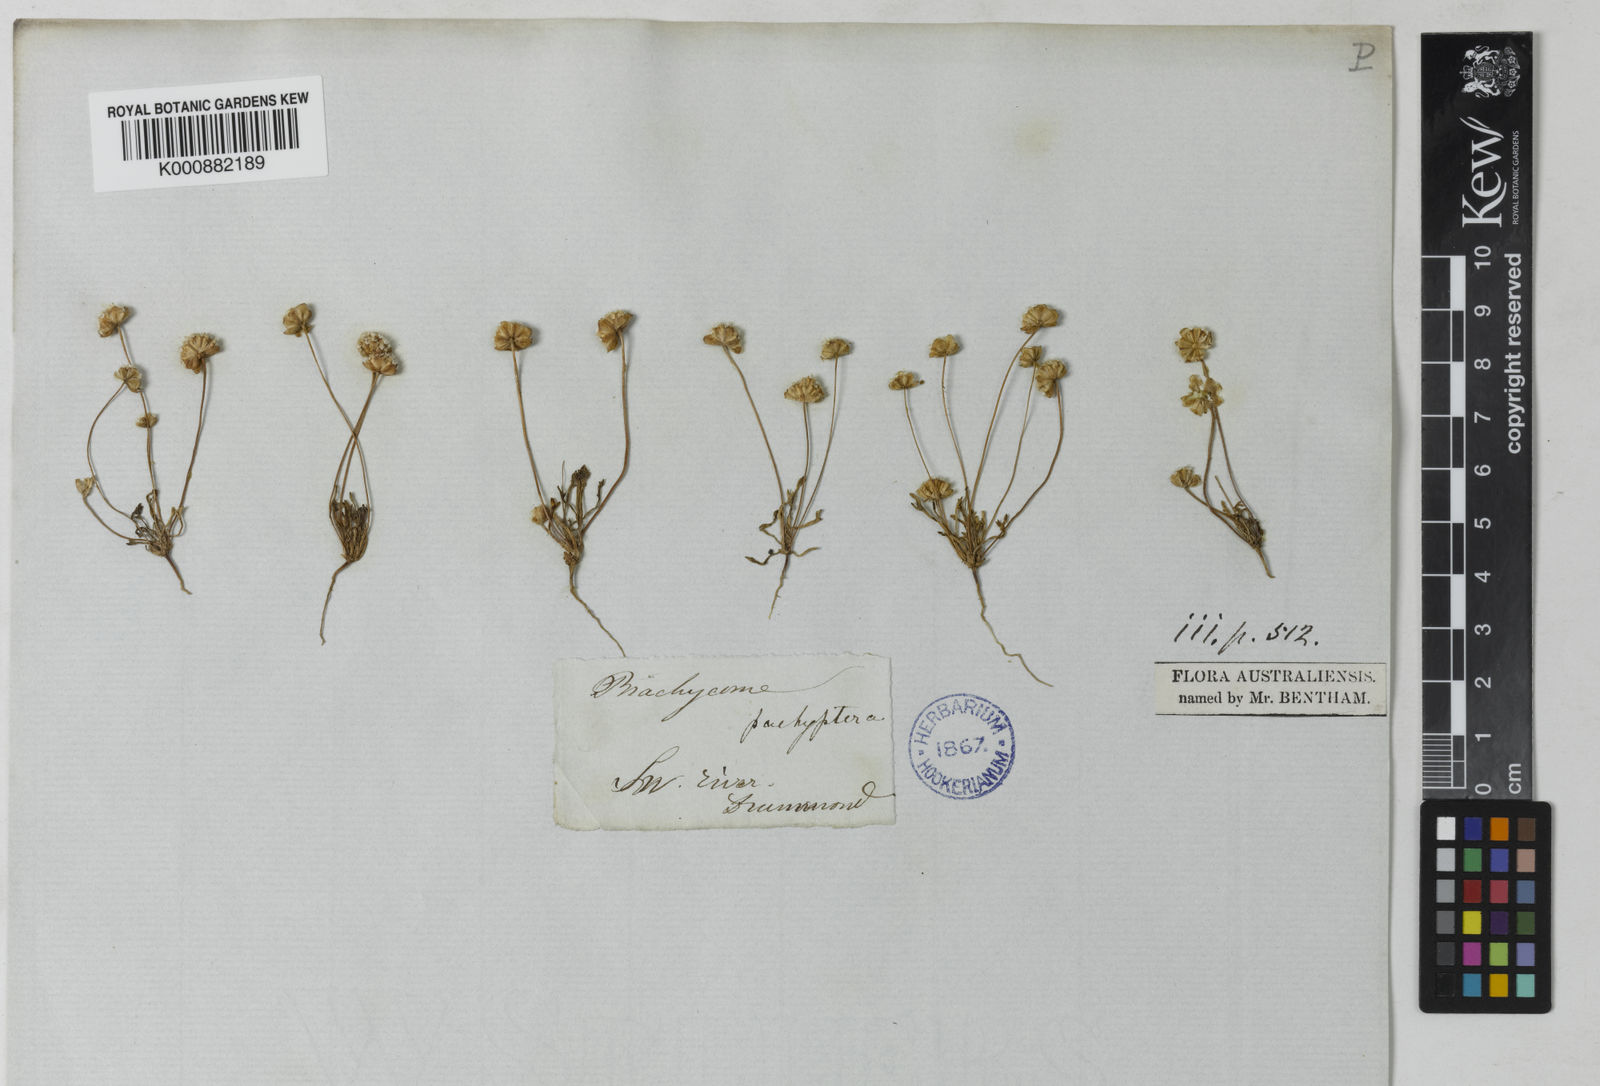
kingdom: Plantae
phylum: Tracheophyta
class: Magnoliopsida
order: Asterales
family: Asteraceae
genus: Brachyscome
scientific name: Brachyscome lineariloba
